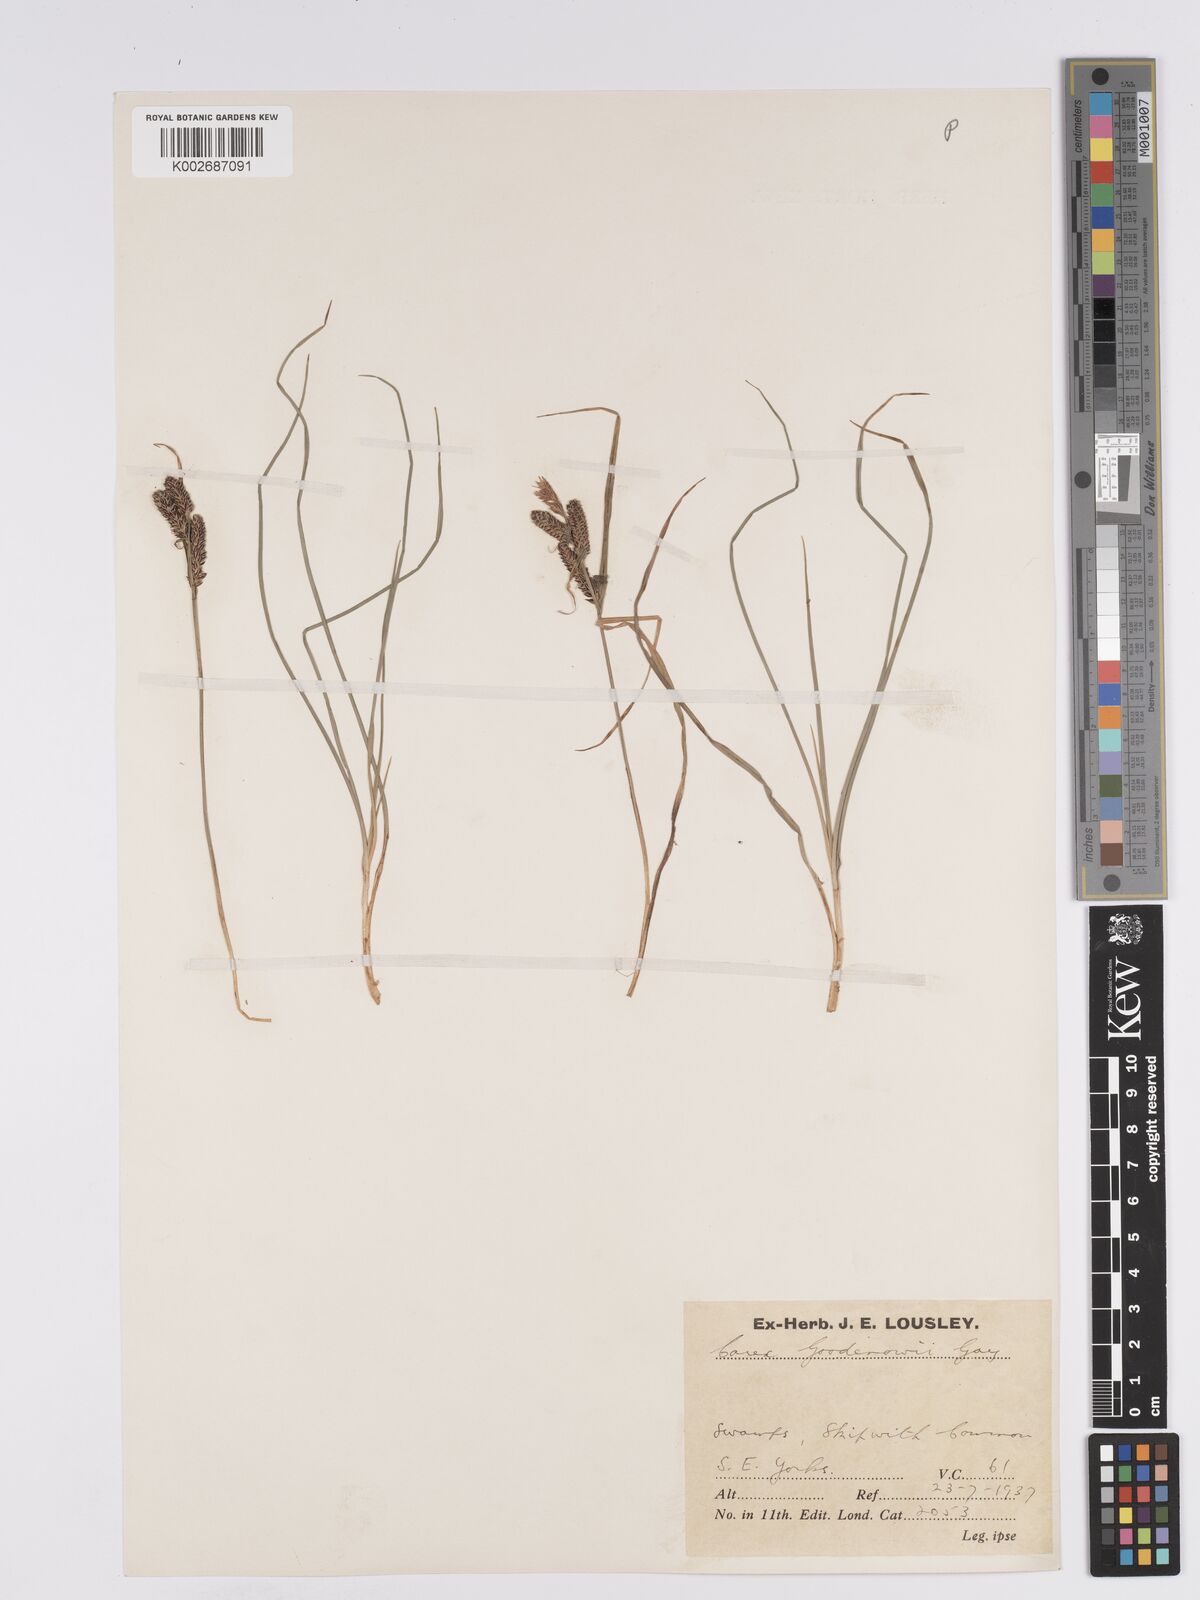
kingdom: Plantae
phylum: Tracheophyta
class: Liliopsida
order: Poales
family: Cyperaceae
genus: Carex
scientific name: Carex nigra
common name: Common sedge
